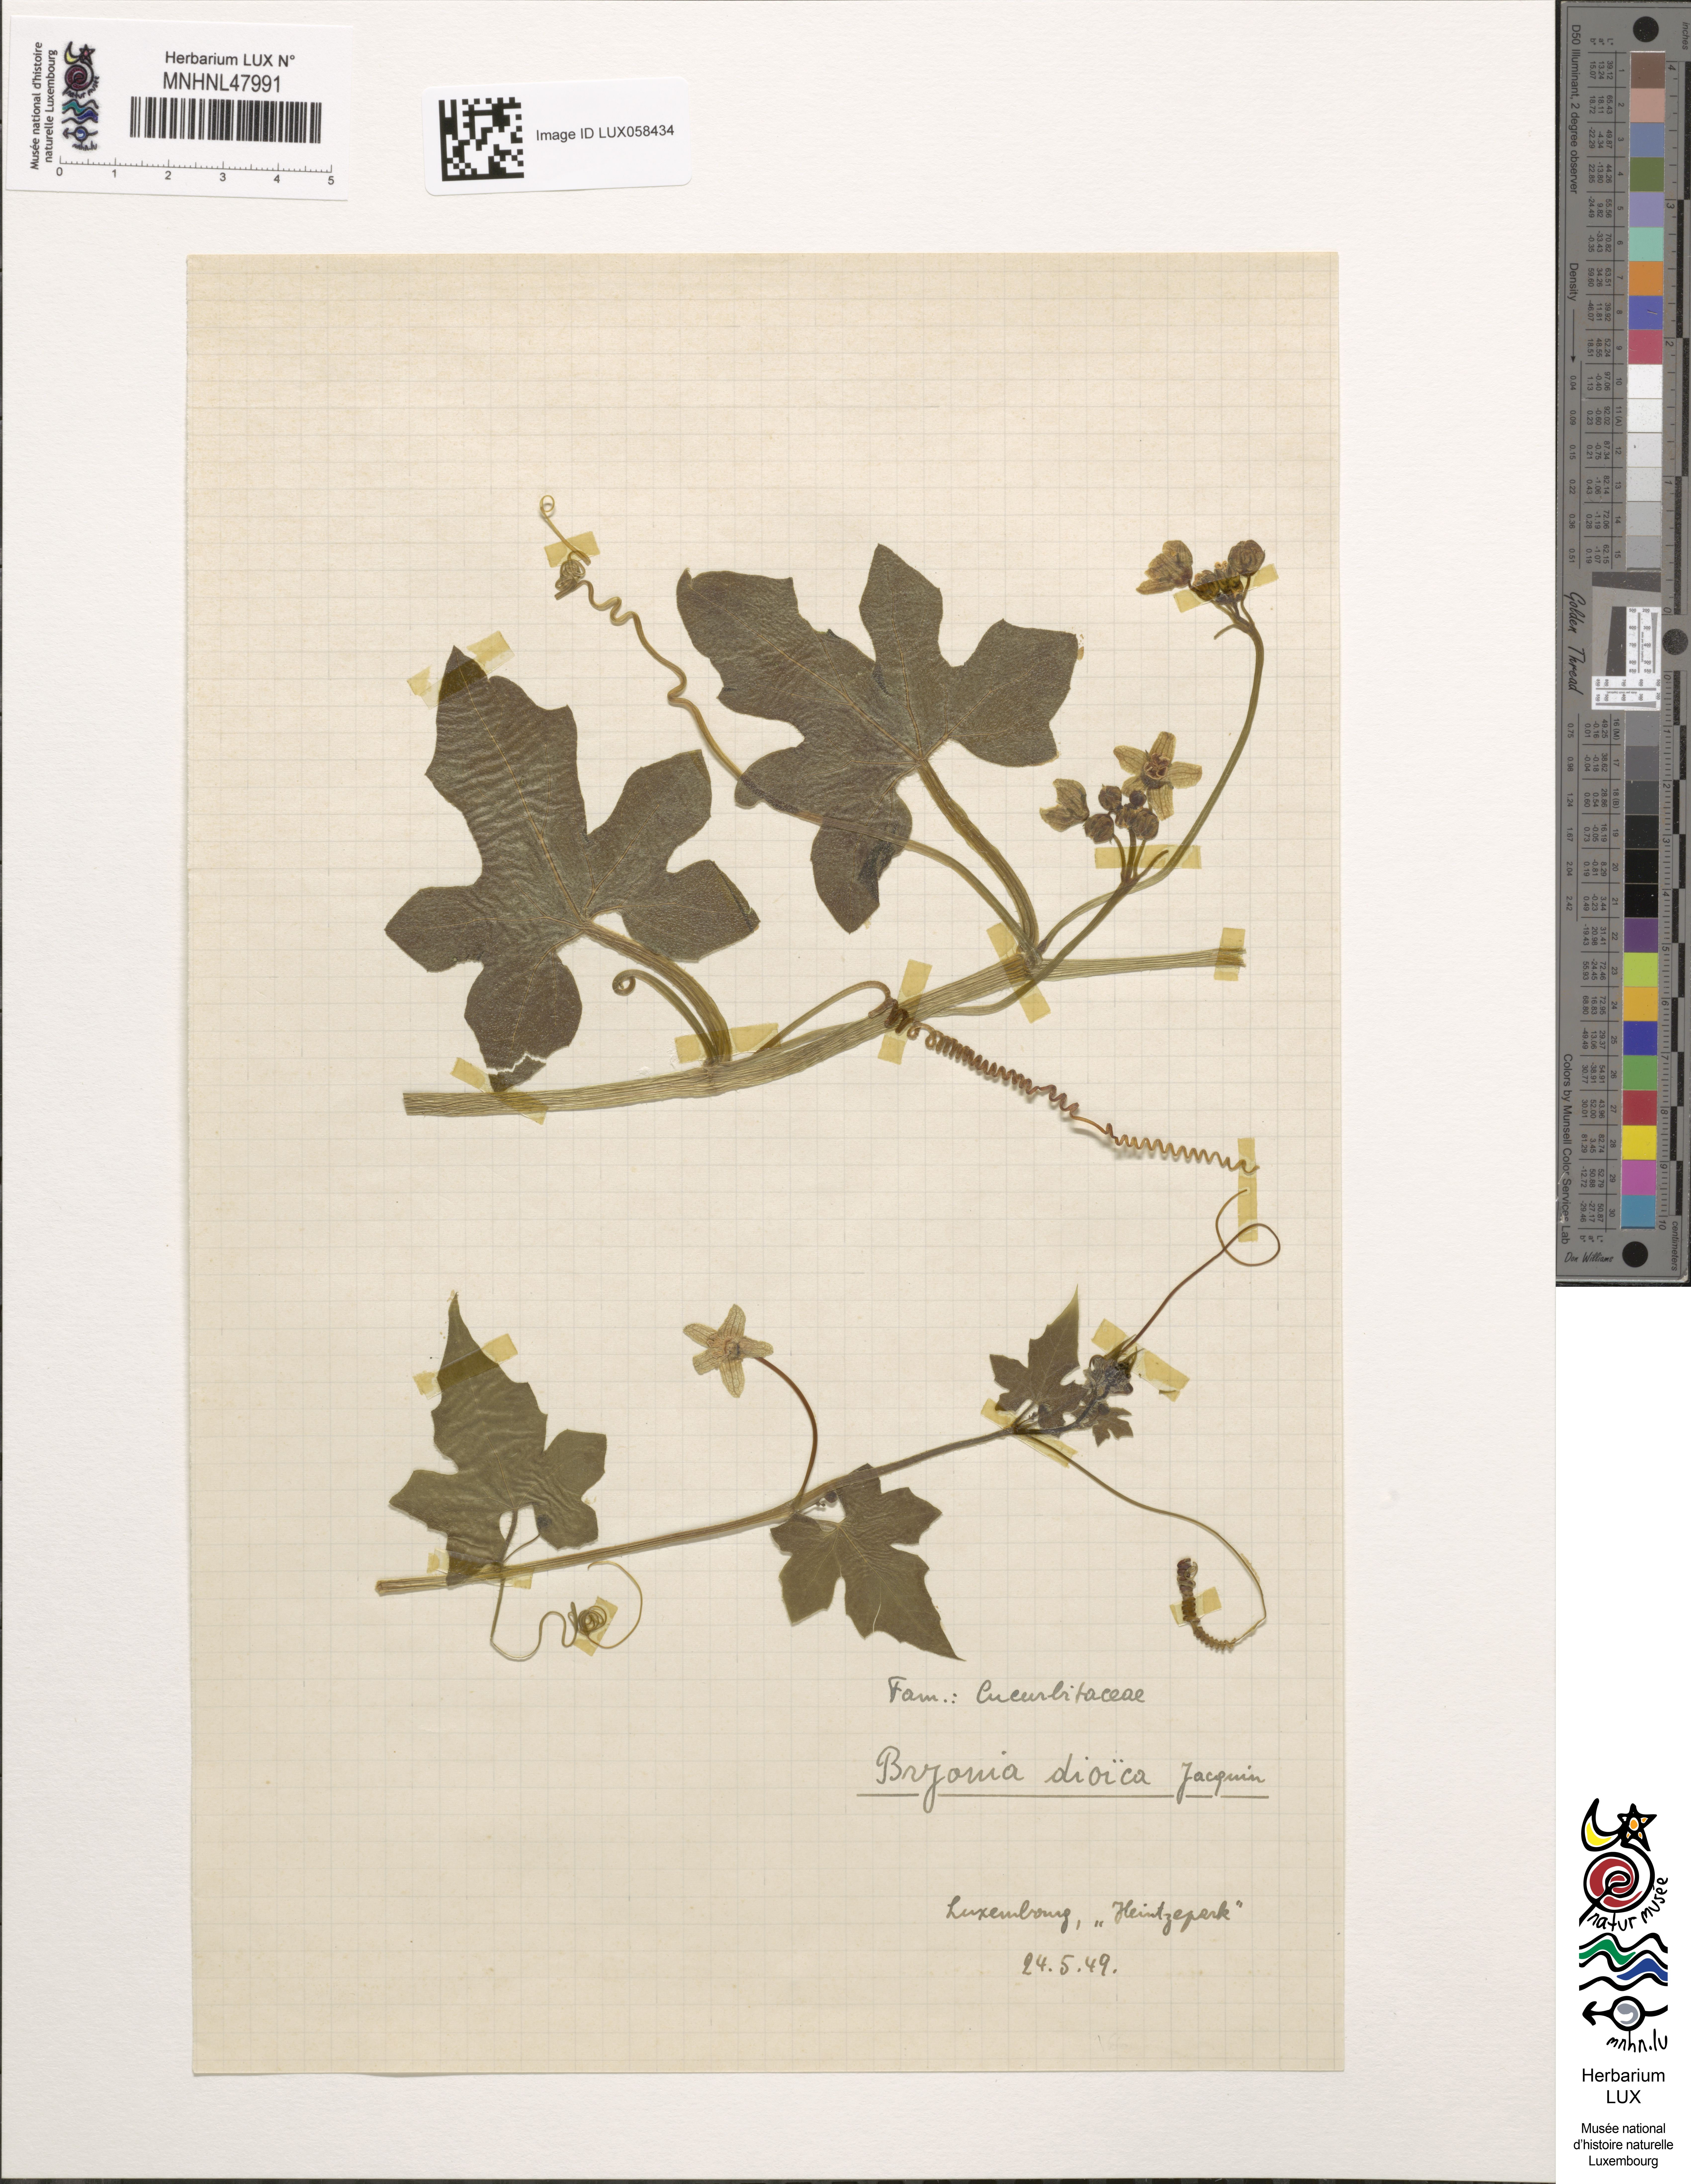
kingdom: Plantae
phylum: Tracheophyta
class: Magnoliopsida
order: Cucurbitales
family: Cucurbitaceae
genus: Bryonia
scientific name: Bryonia dioica
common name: White bryony
